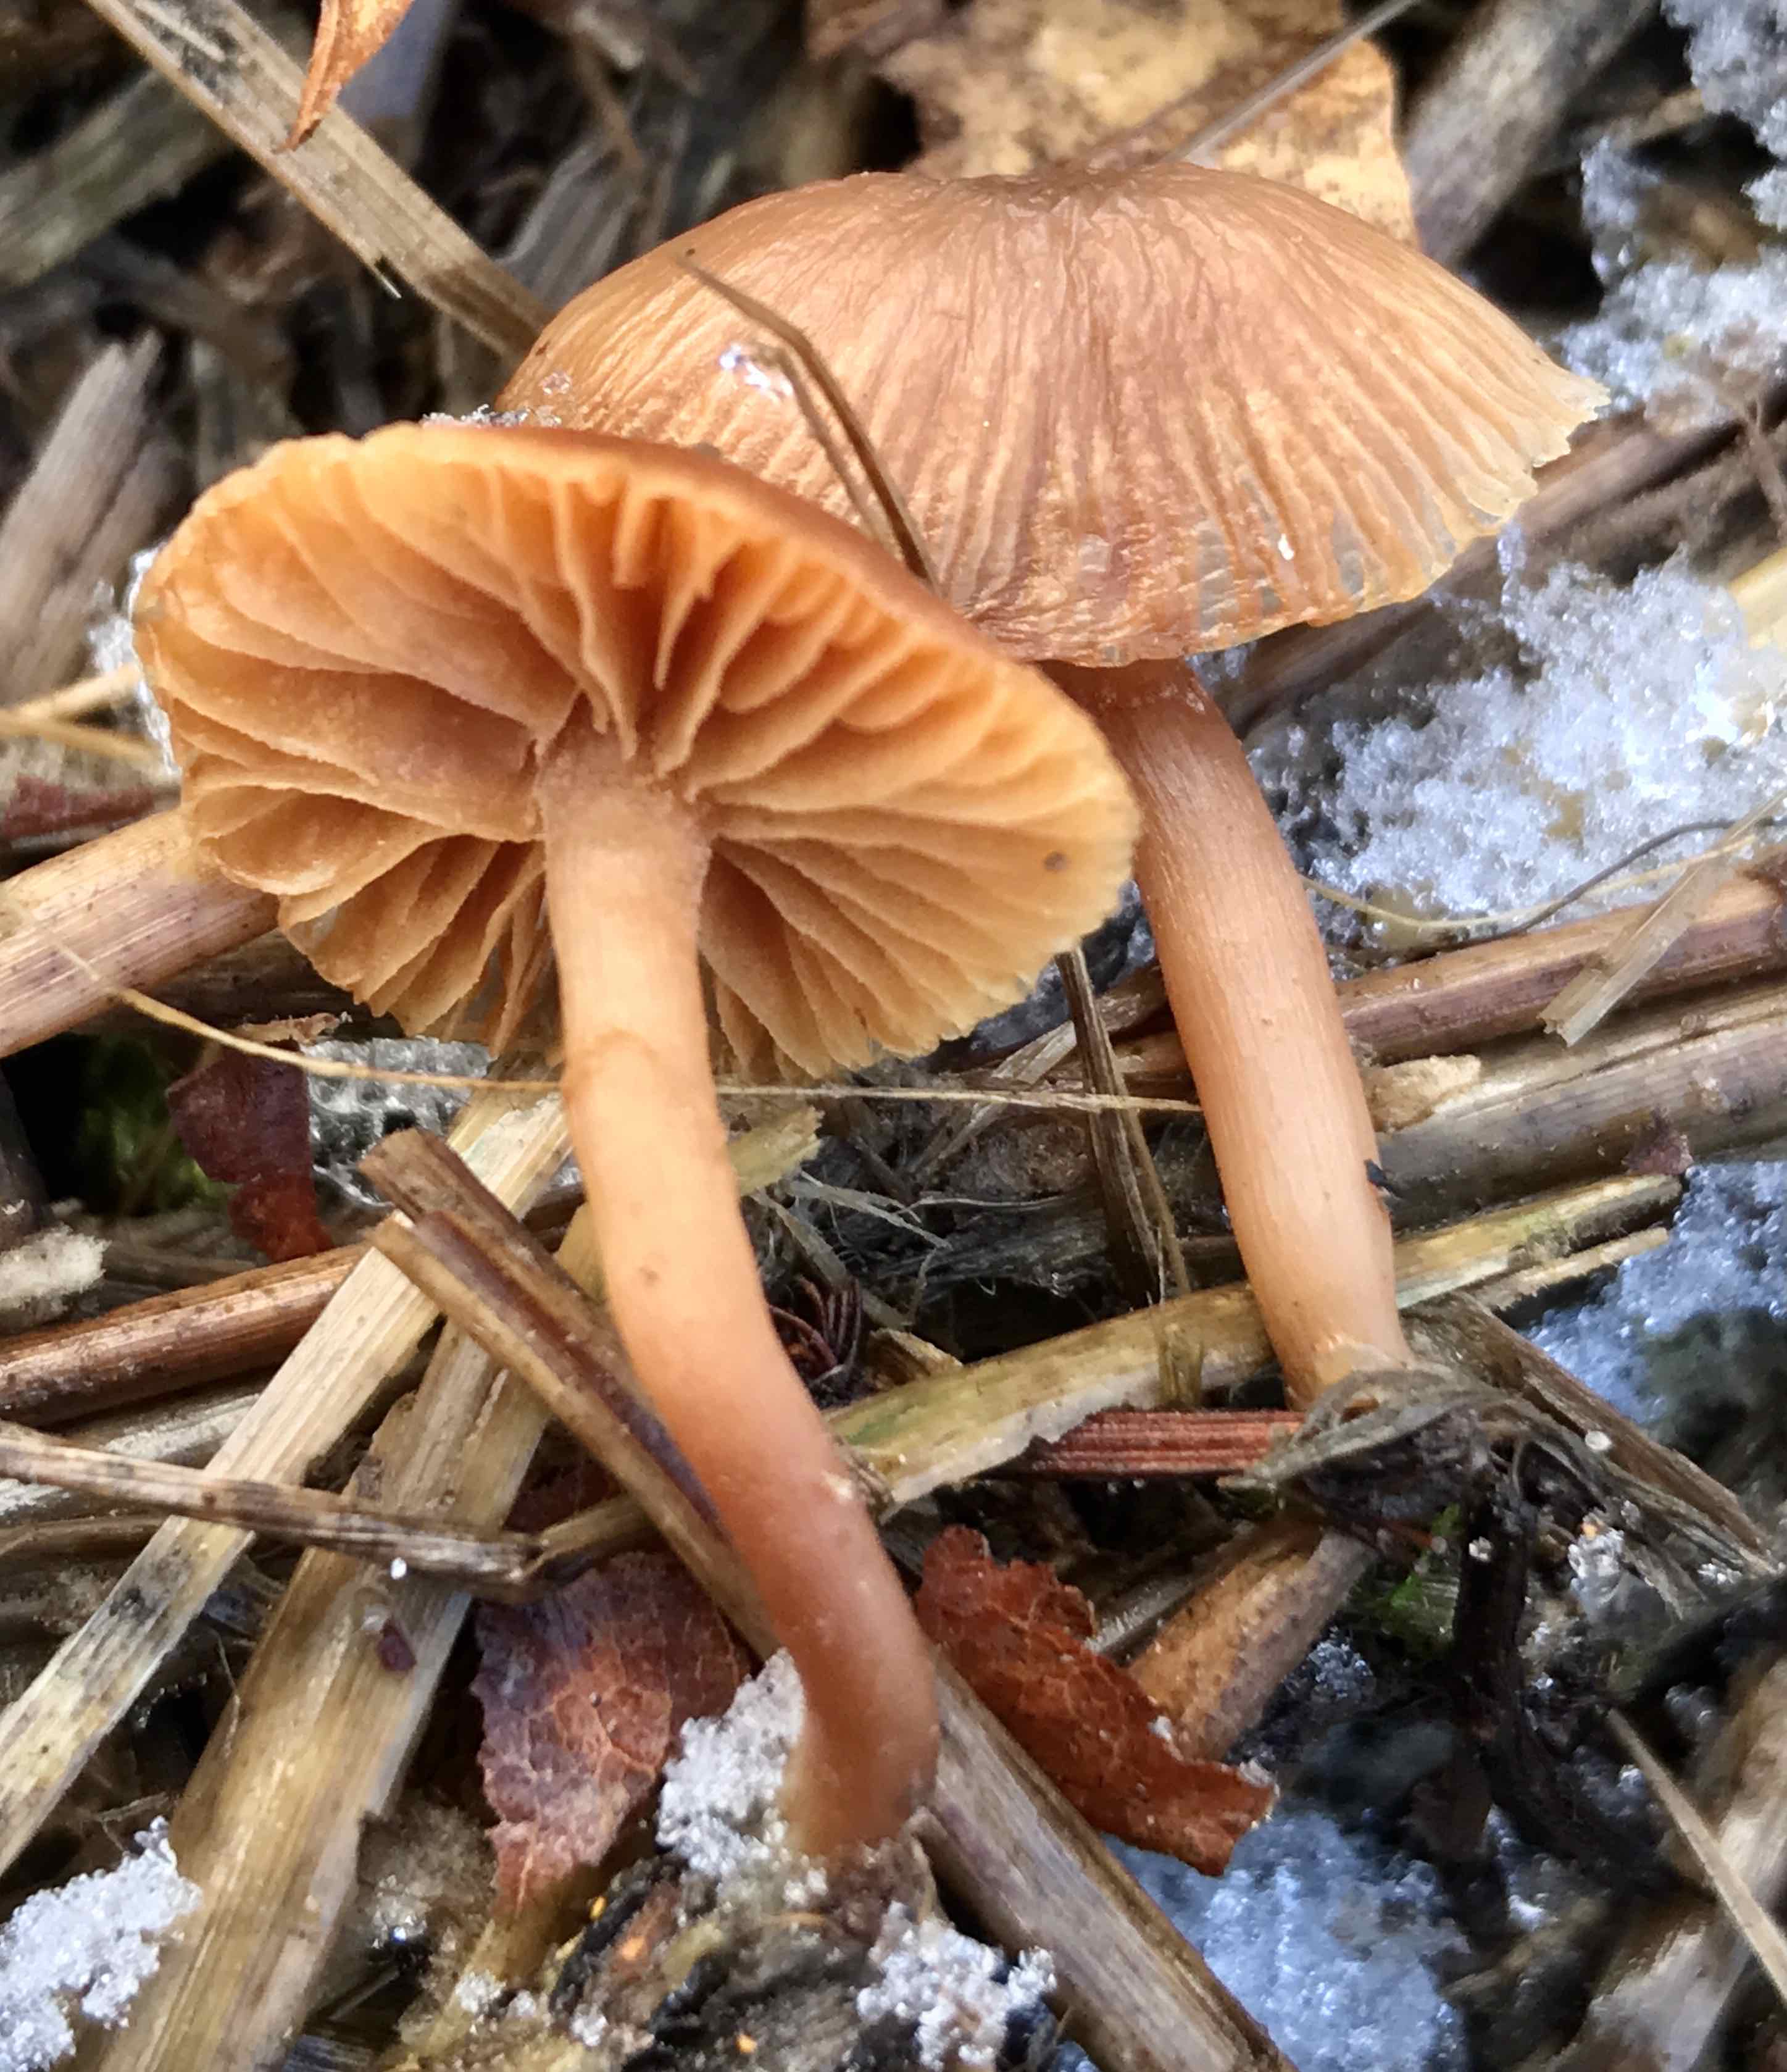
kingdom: Fungi
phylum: Basidiomycota
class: Agaricomycetes
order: Agaricales
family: Tubariaceae
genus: Tubaria
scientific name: Tubaria furfuracea
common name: kliddet fnughat
